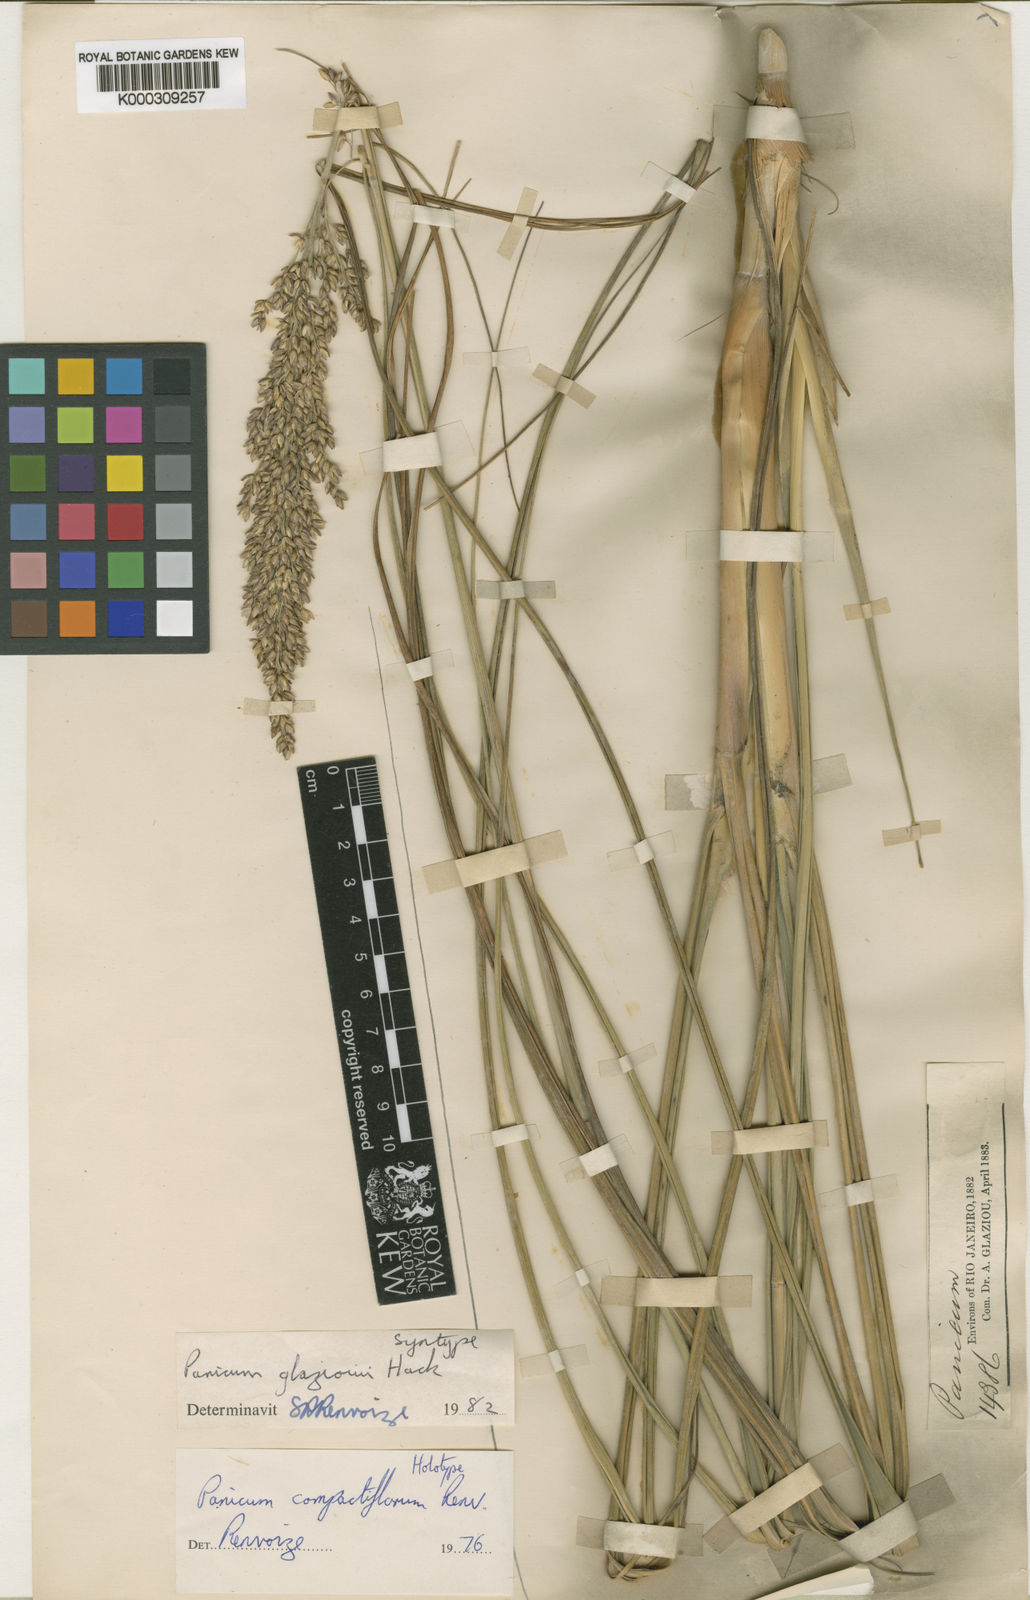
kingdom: Plantae
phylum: Tracheophyta
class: Liliopsida
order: Poales
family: Poaceae
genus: Renvoizea
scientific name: Renvoizea glaziovii
